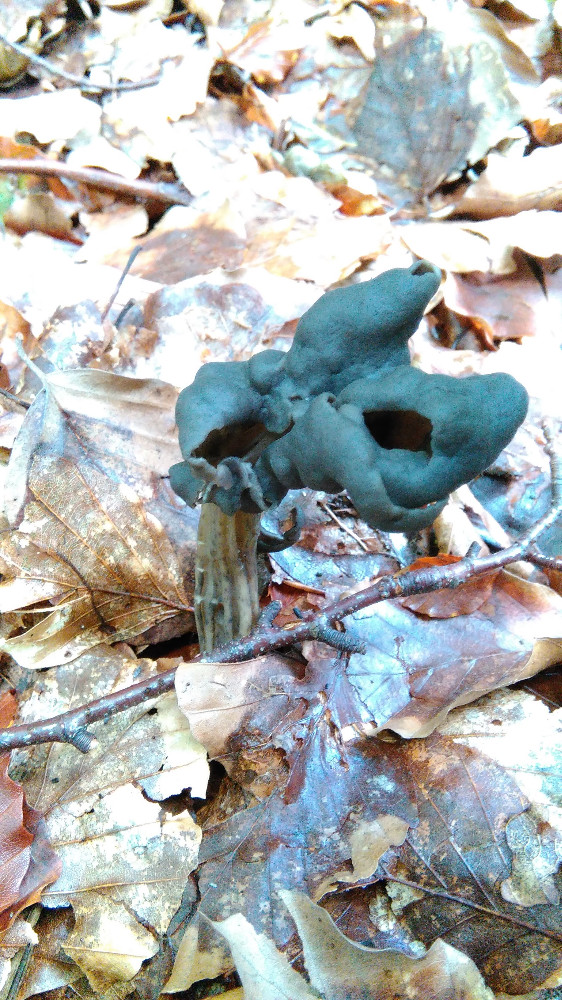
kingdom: Fungi
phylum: Ascomycota
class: Pezizomycetes
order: Pezizales
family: Helvellaceae
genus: Helvella
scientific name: Helvella lacunosa
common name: grubet foldhat
